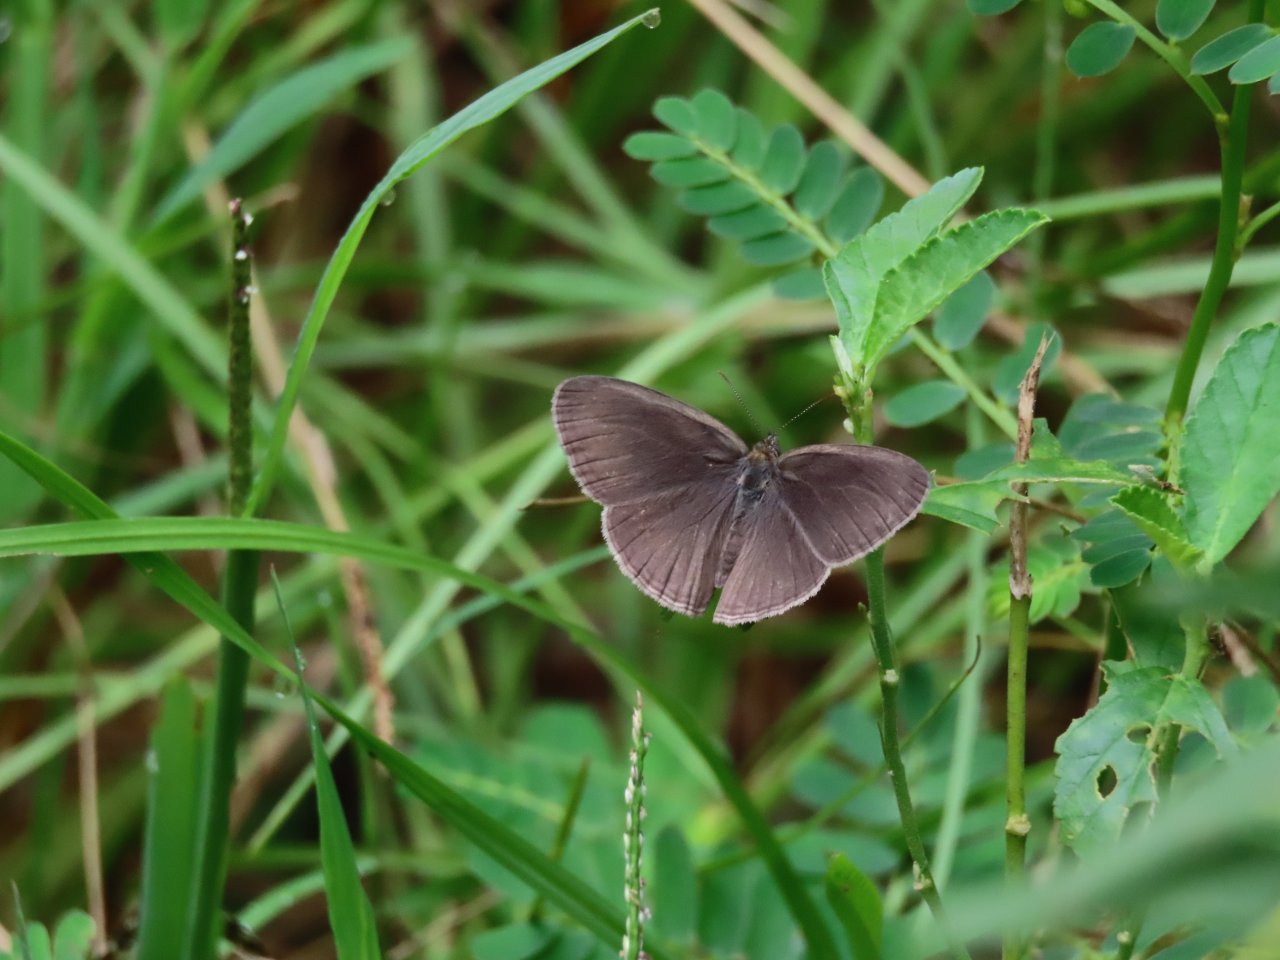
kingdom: Animalia
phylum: Arthropoda
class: Insecta
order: Lepidoptera
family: Nymphalidae
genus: Hermeuptychia
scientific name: Hermeuptychia hermes
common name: Carolina Satyr
